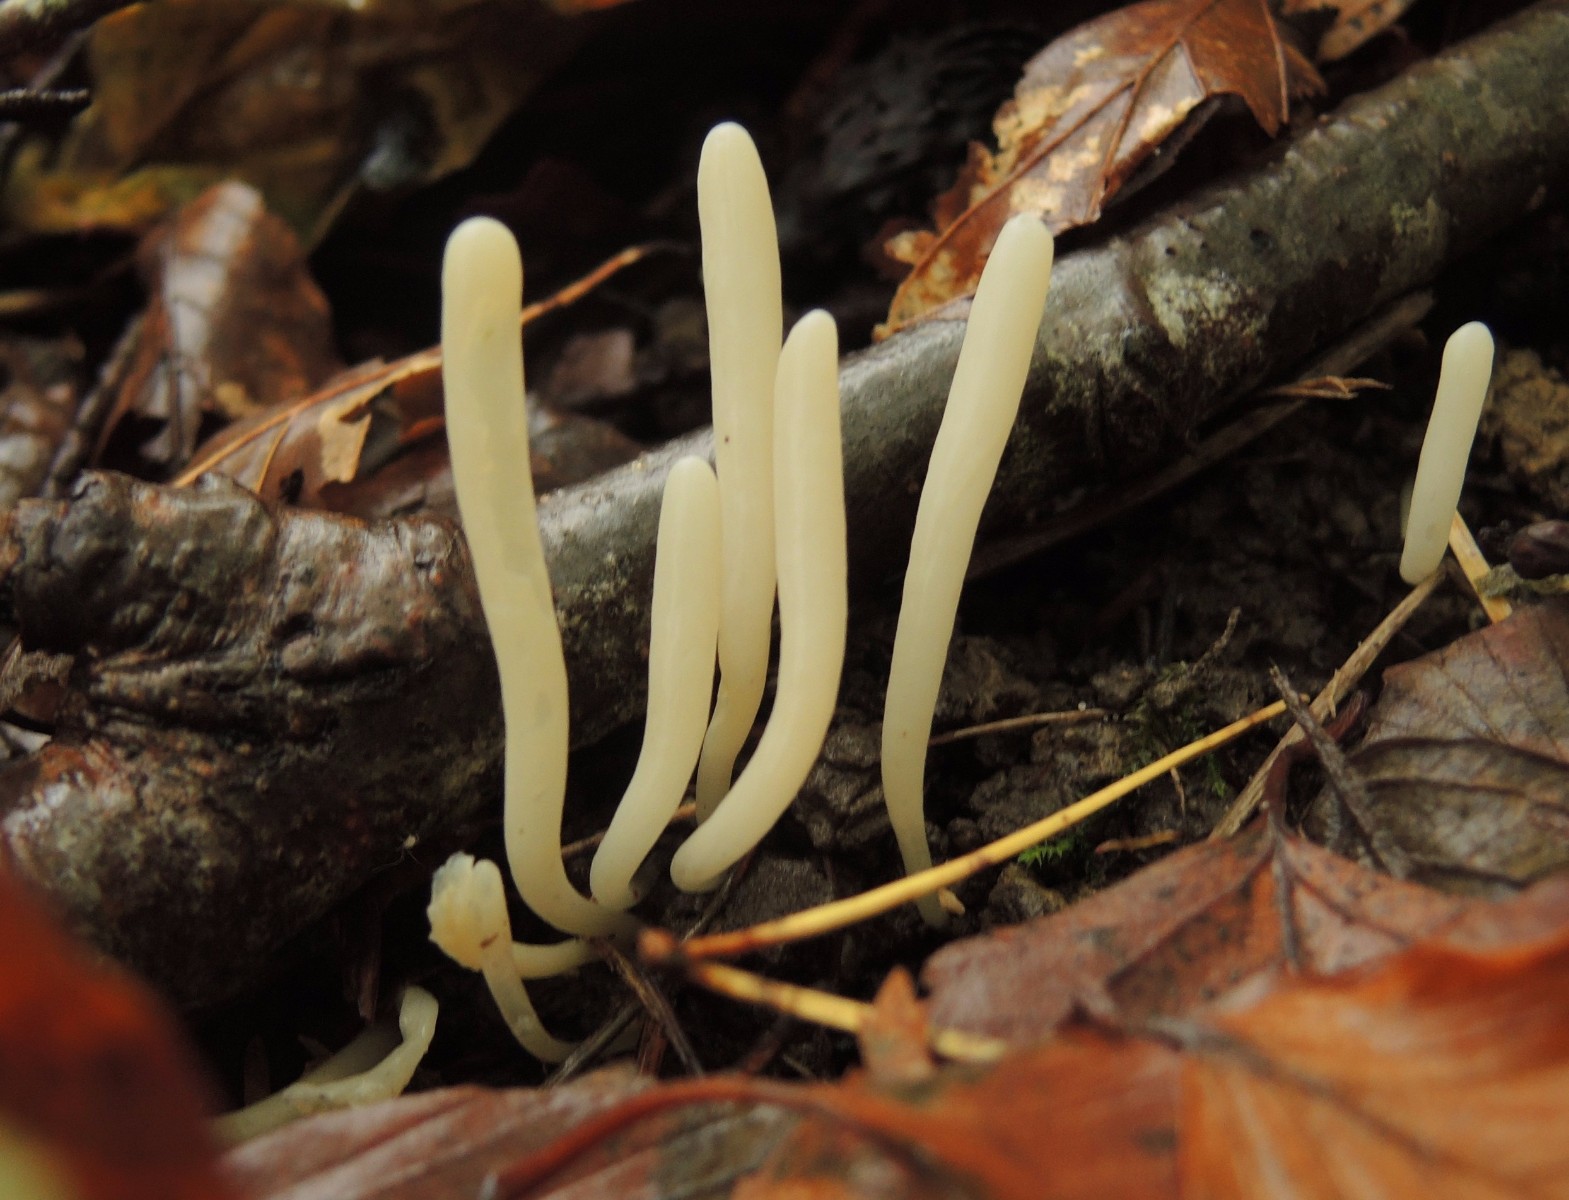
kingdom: Fungi
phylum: Basidiomycota
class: Agaricomycetes
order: Agaricales
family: Clavariaceae
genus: Clavaria
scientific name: Clavaria falcata
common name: hvid køllesvamp
